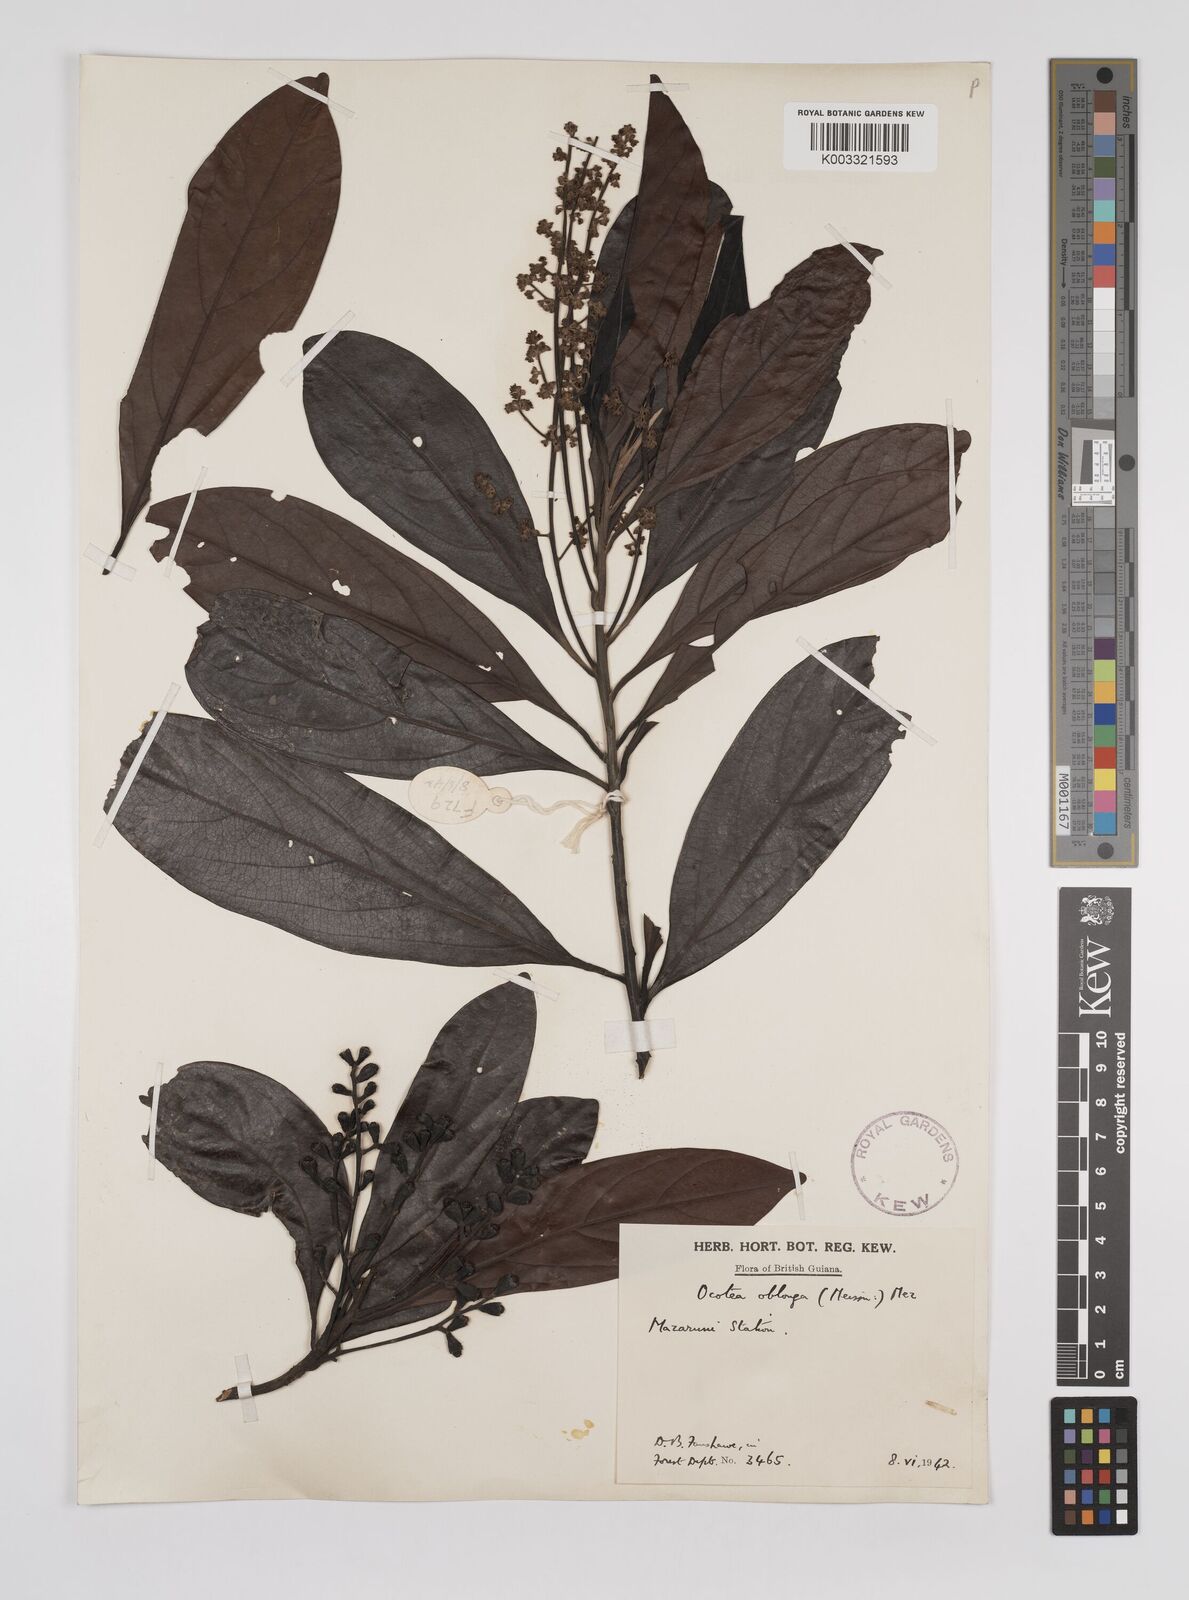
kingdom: Plantae
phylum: Tracheophyta
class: Magnoliopsida
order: Laurales
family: Lauraceae
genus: Ocotea
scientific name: Ocotea oblonga
